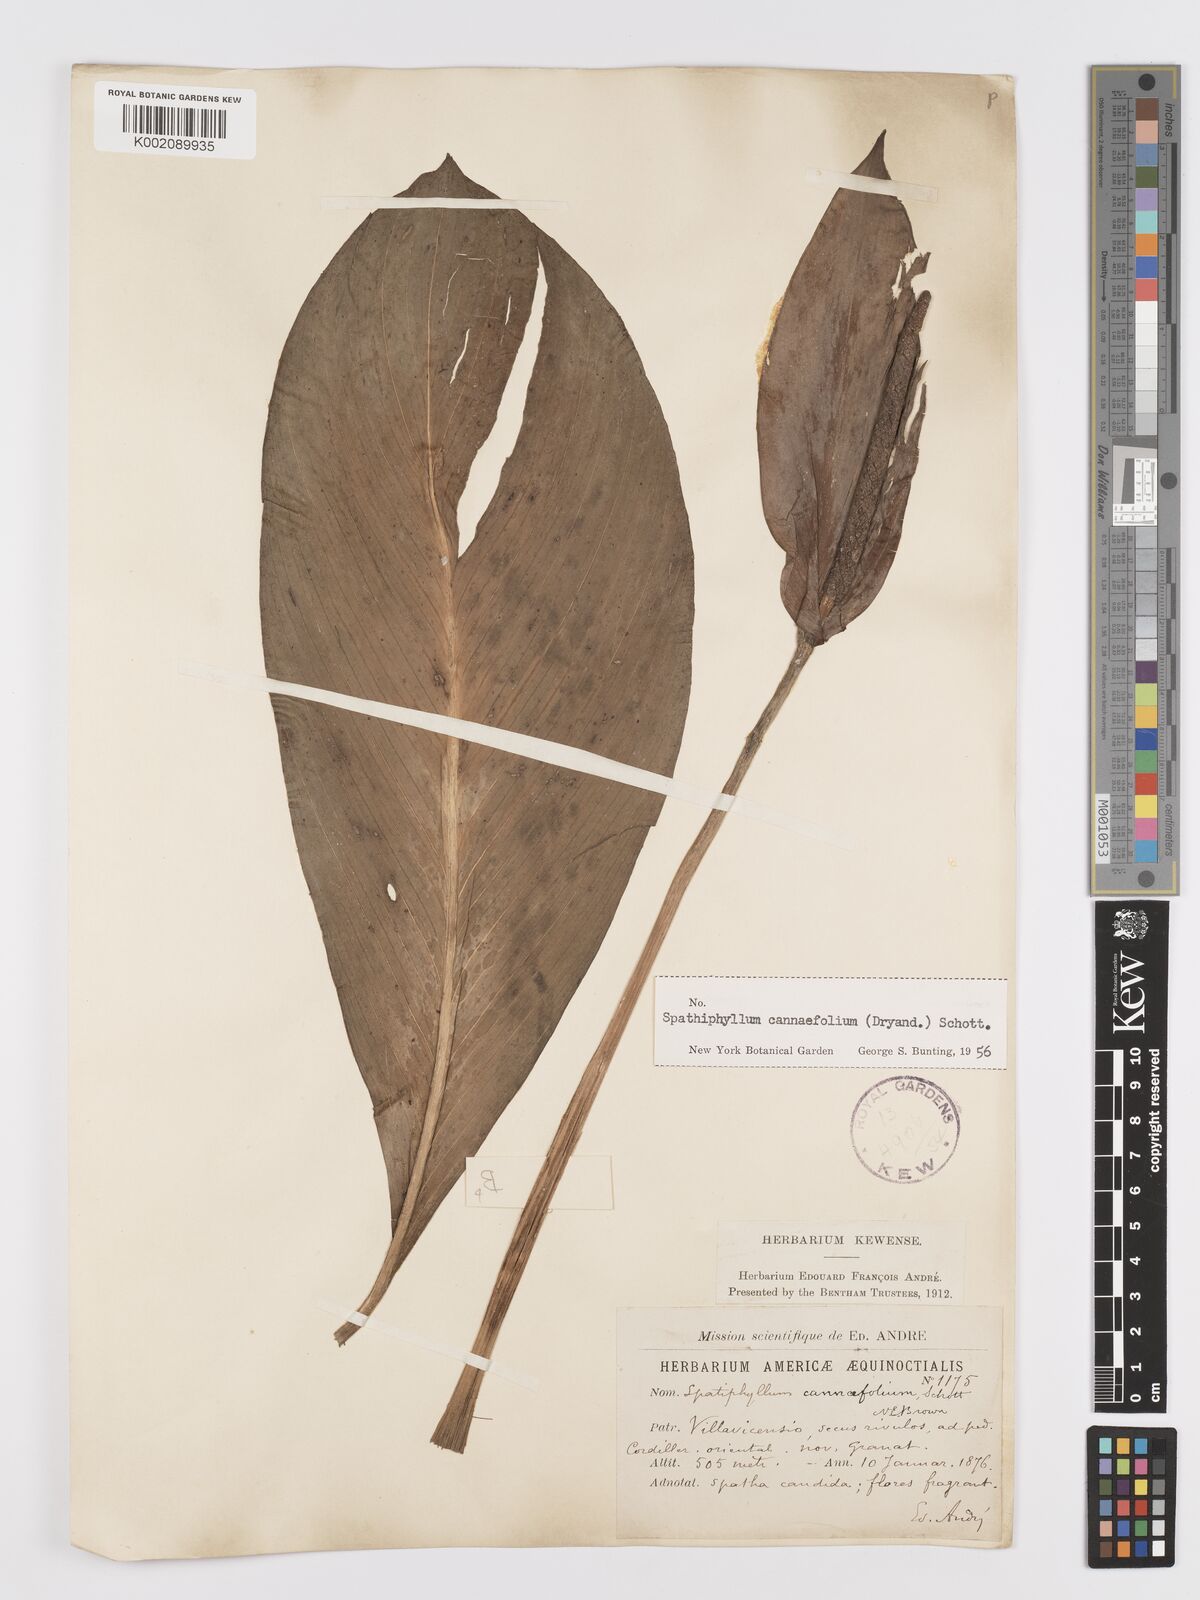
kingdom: Plantae
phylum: Tracheophyta
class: Liliopsida
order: Alismatales
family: Araceae
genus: Spathiphyllum
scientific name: Spathiphyllum cannifolium
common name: Spatheflower
